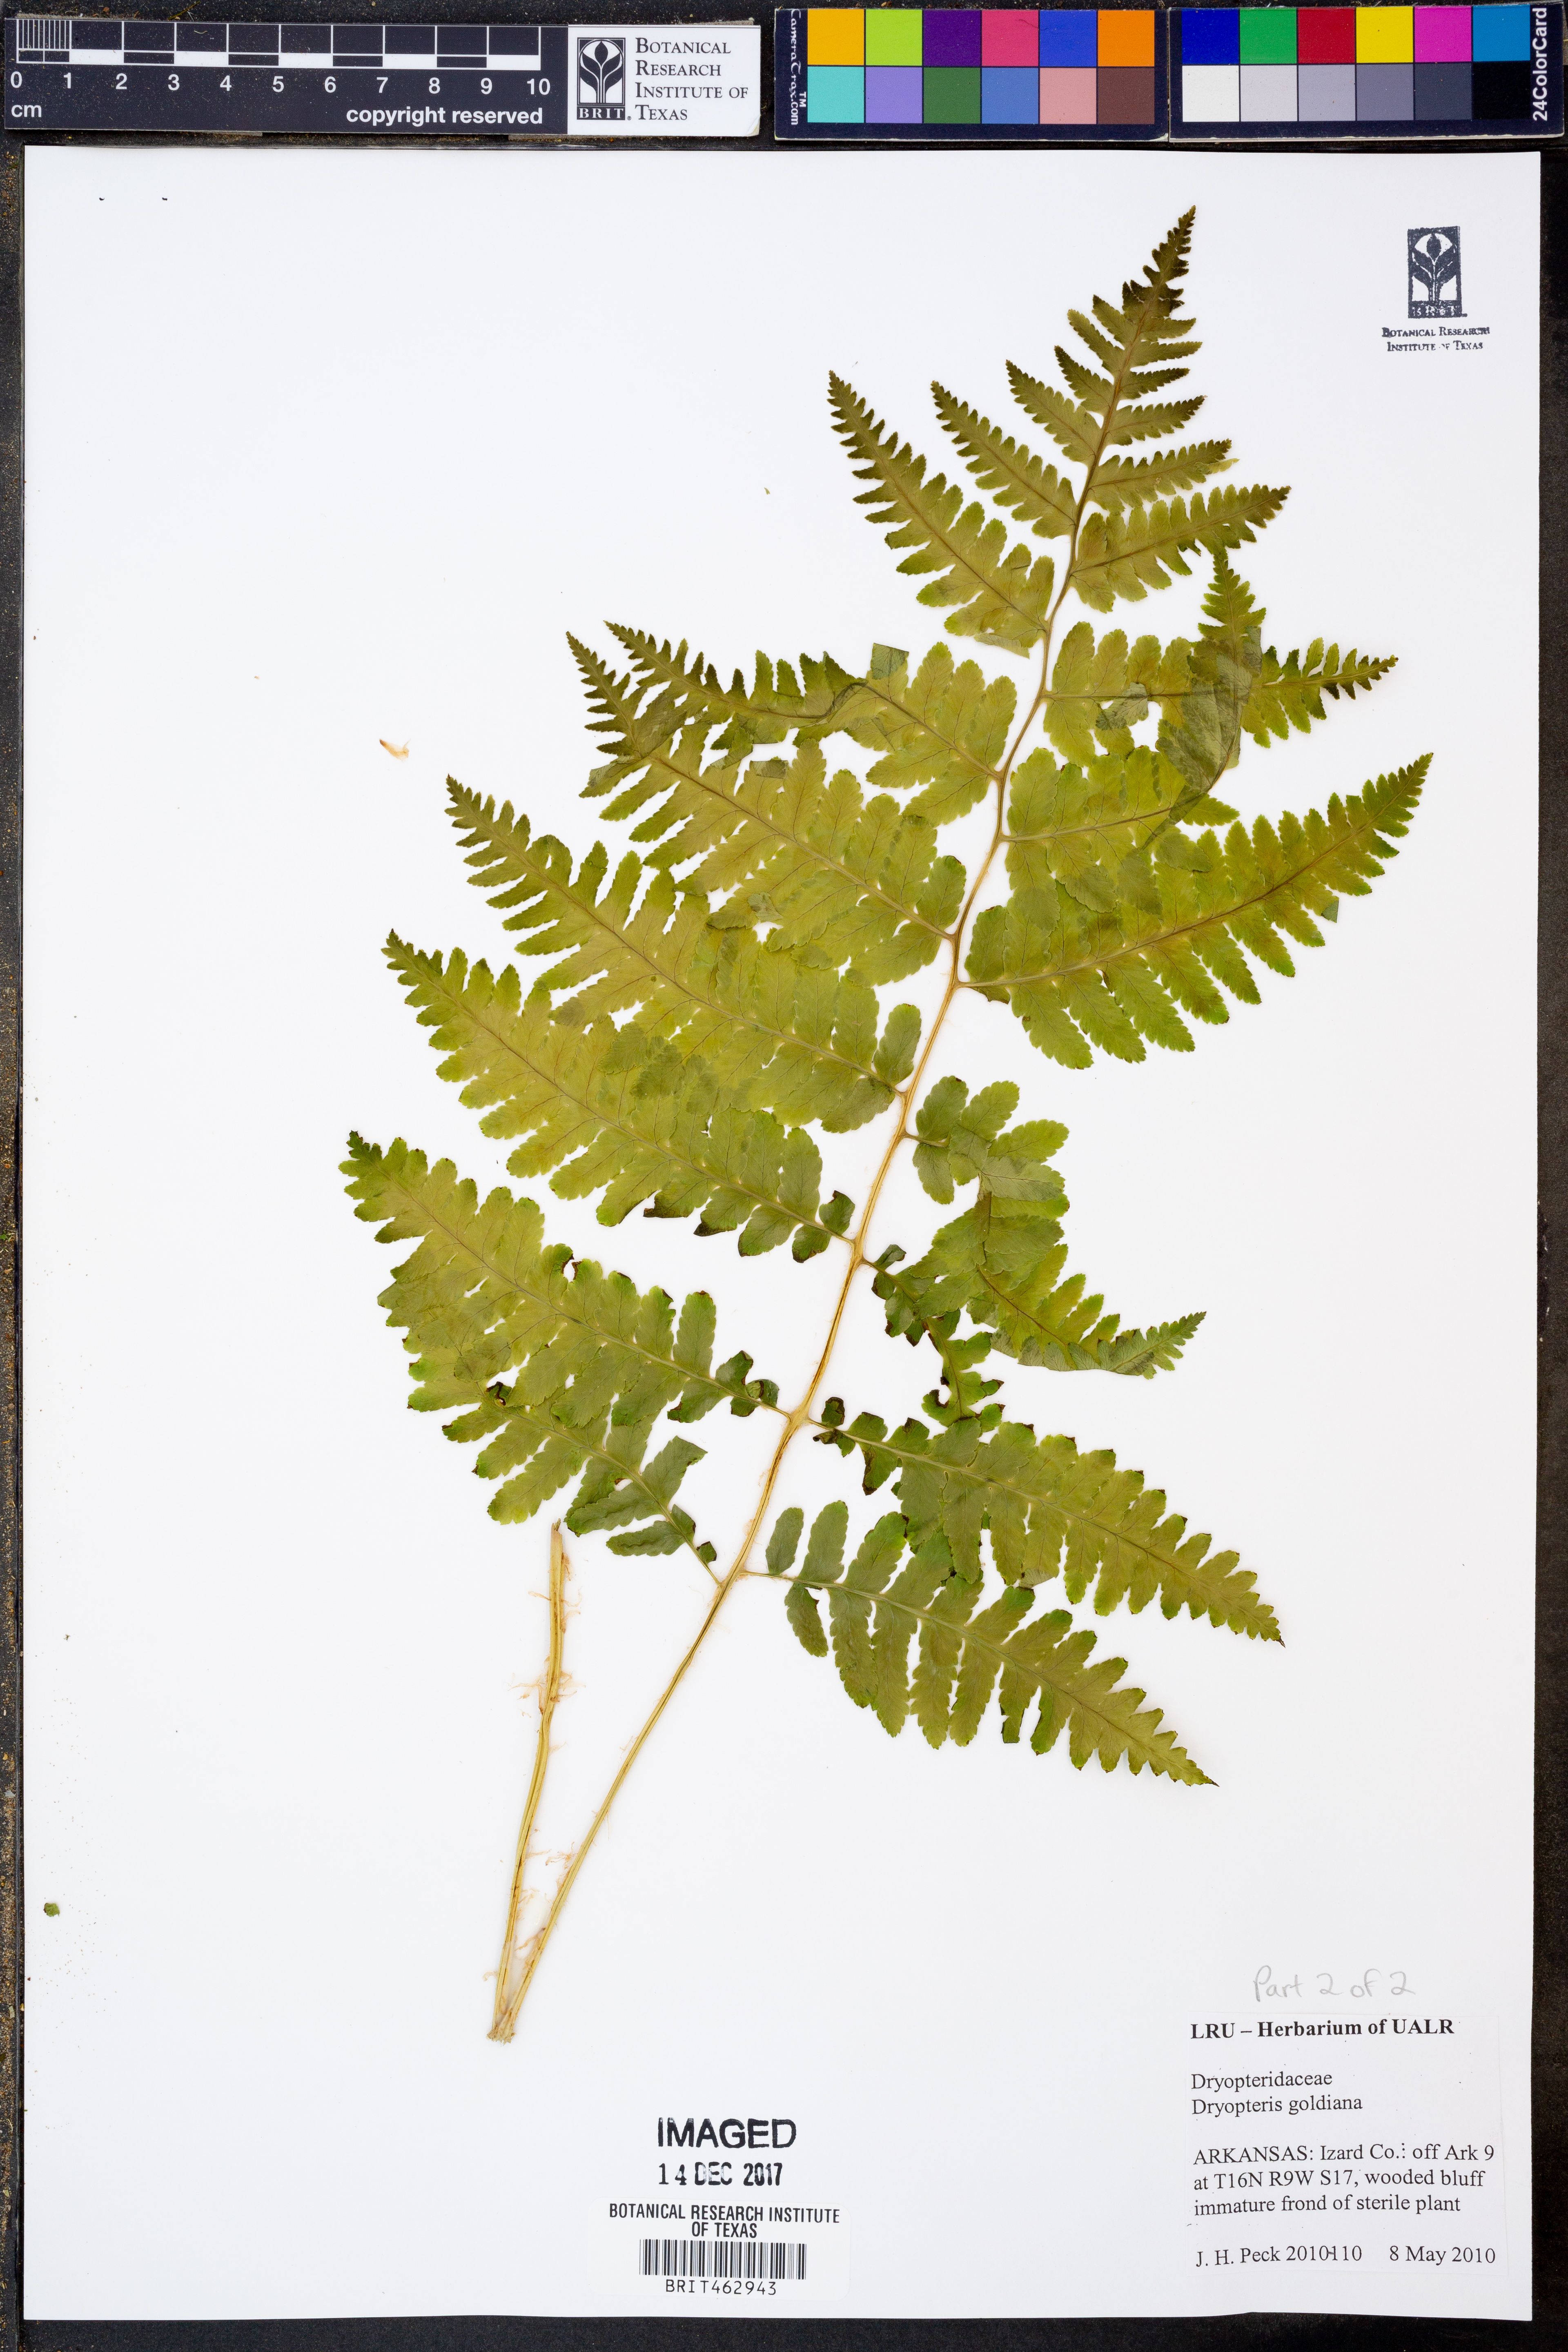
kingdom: Plantae
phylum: Tracheophyta
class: Polypodiopsida
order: Polypodiales
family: Dryopteridaceae
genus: Dryopteris
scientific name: Dryopteris goeldiana
